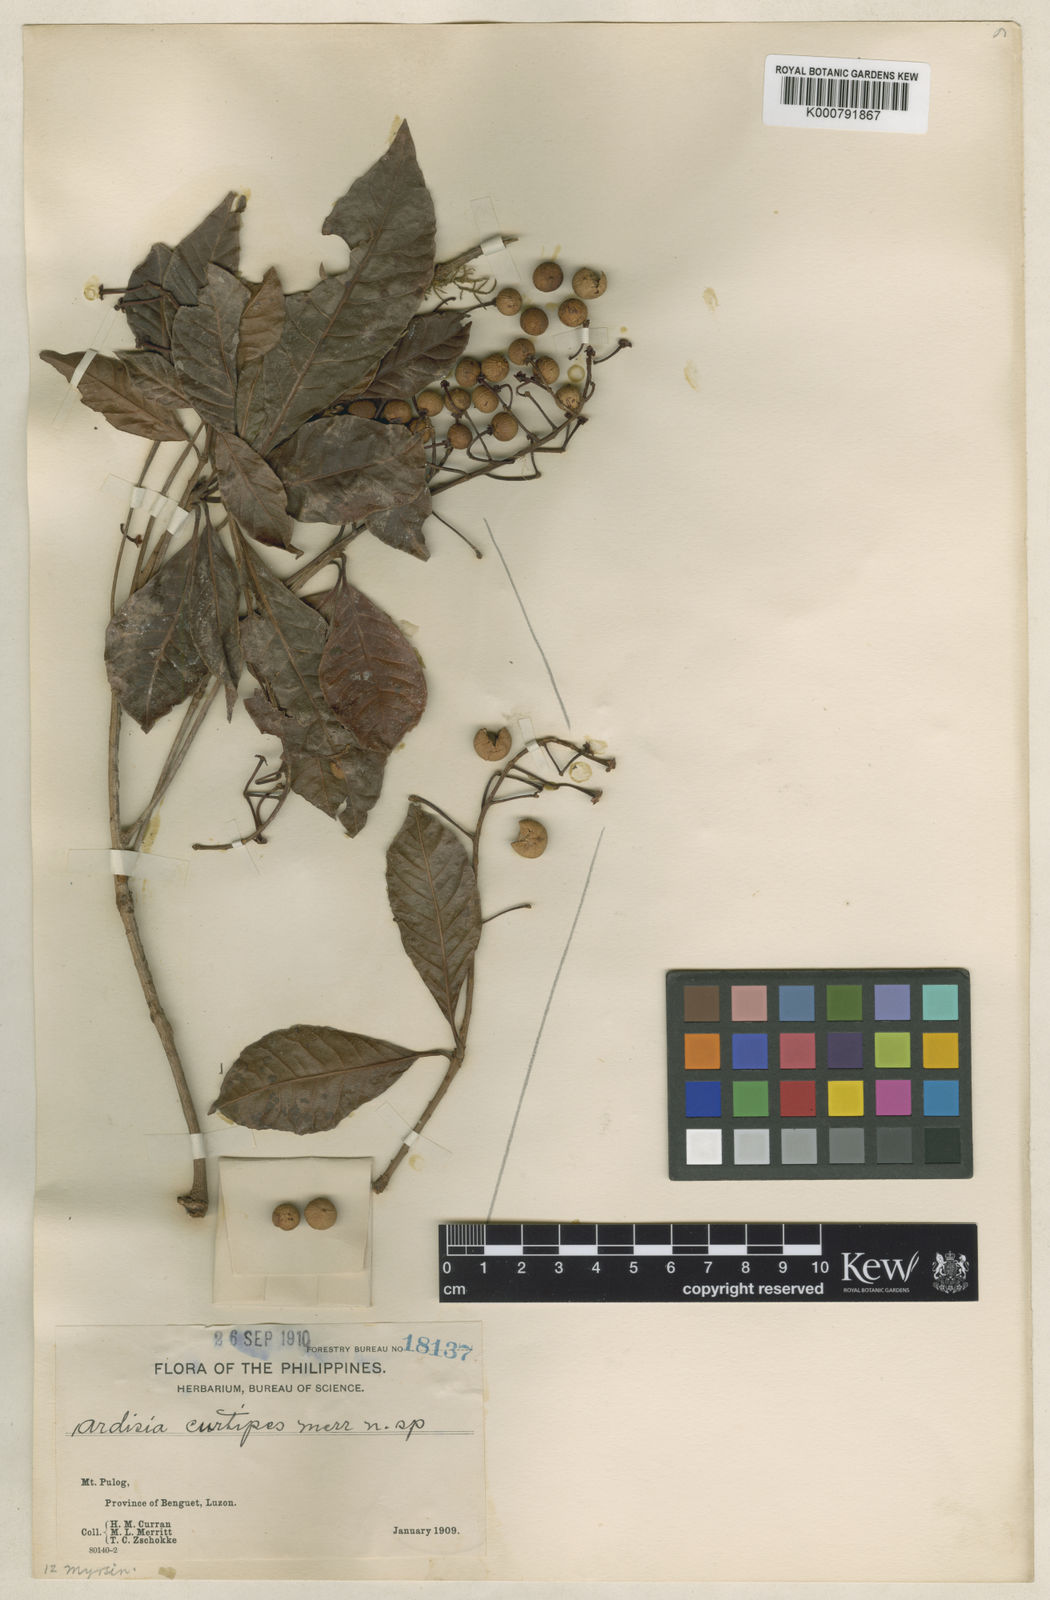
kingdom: Plantae
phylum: Tracheophyta
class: Magnoliopsida
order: Ericales
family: Primulaceae
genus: Ardisia
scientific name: Ardisia serrata
